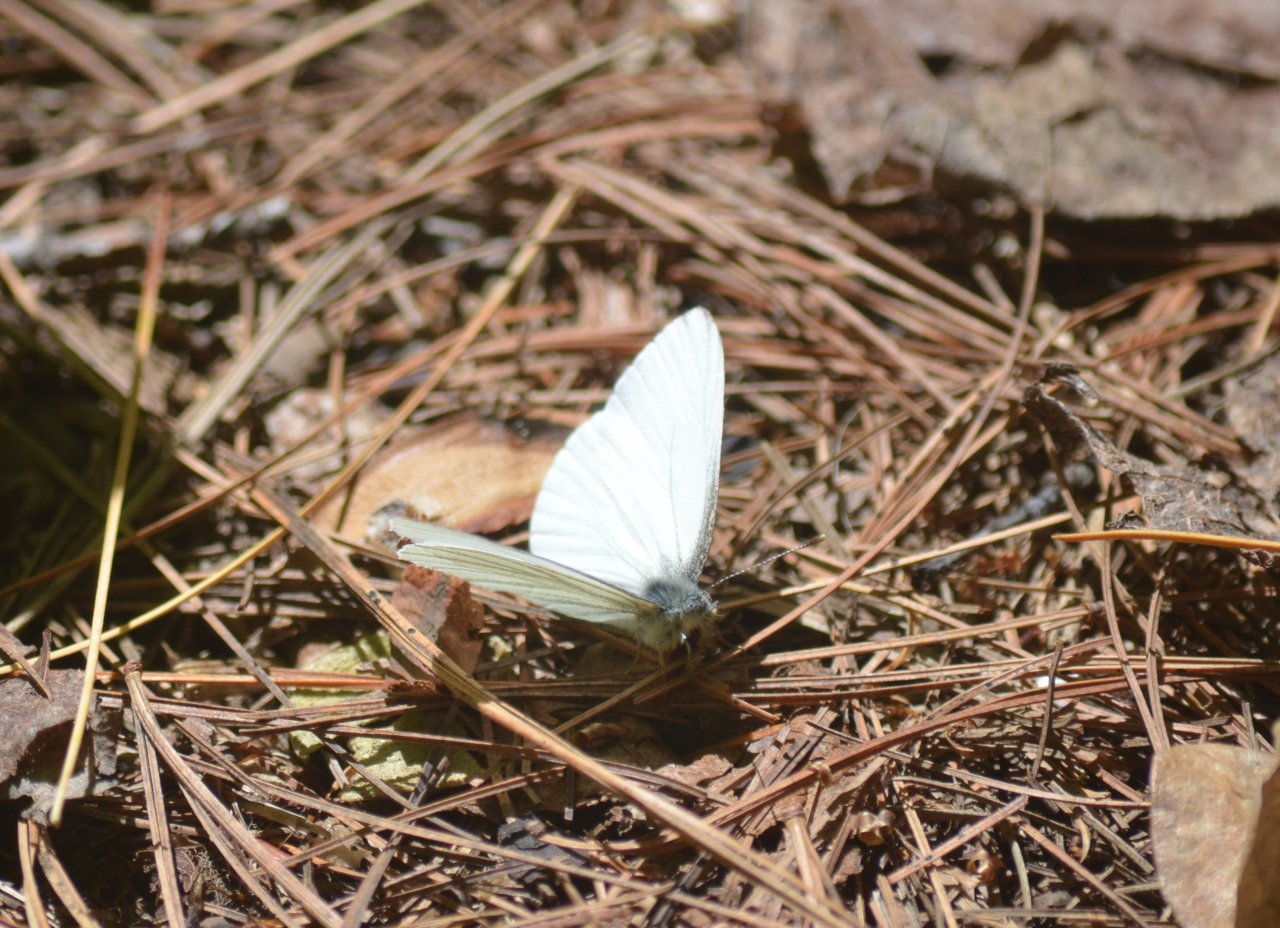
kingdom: Animalia
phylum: Arthropoda
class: Insecta
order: Lepidoptera
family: Pieridae
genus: Pieris
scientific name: Pieris oleracea
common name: Mustard White
